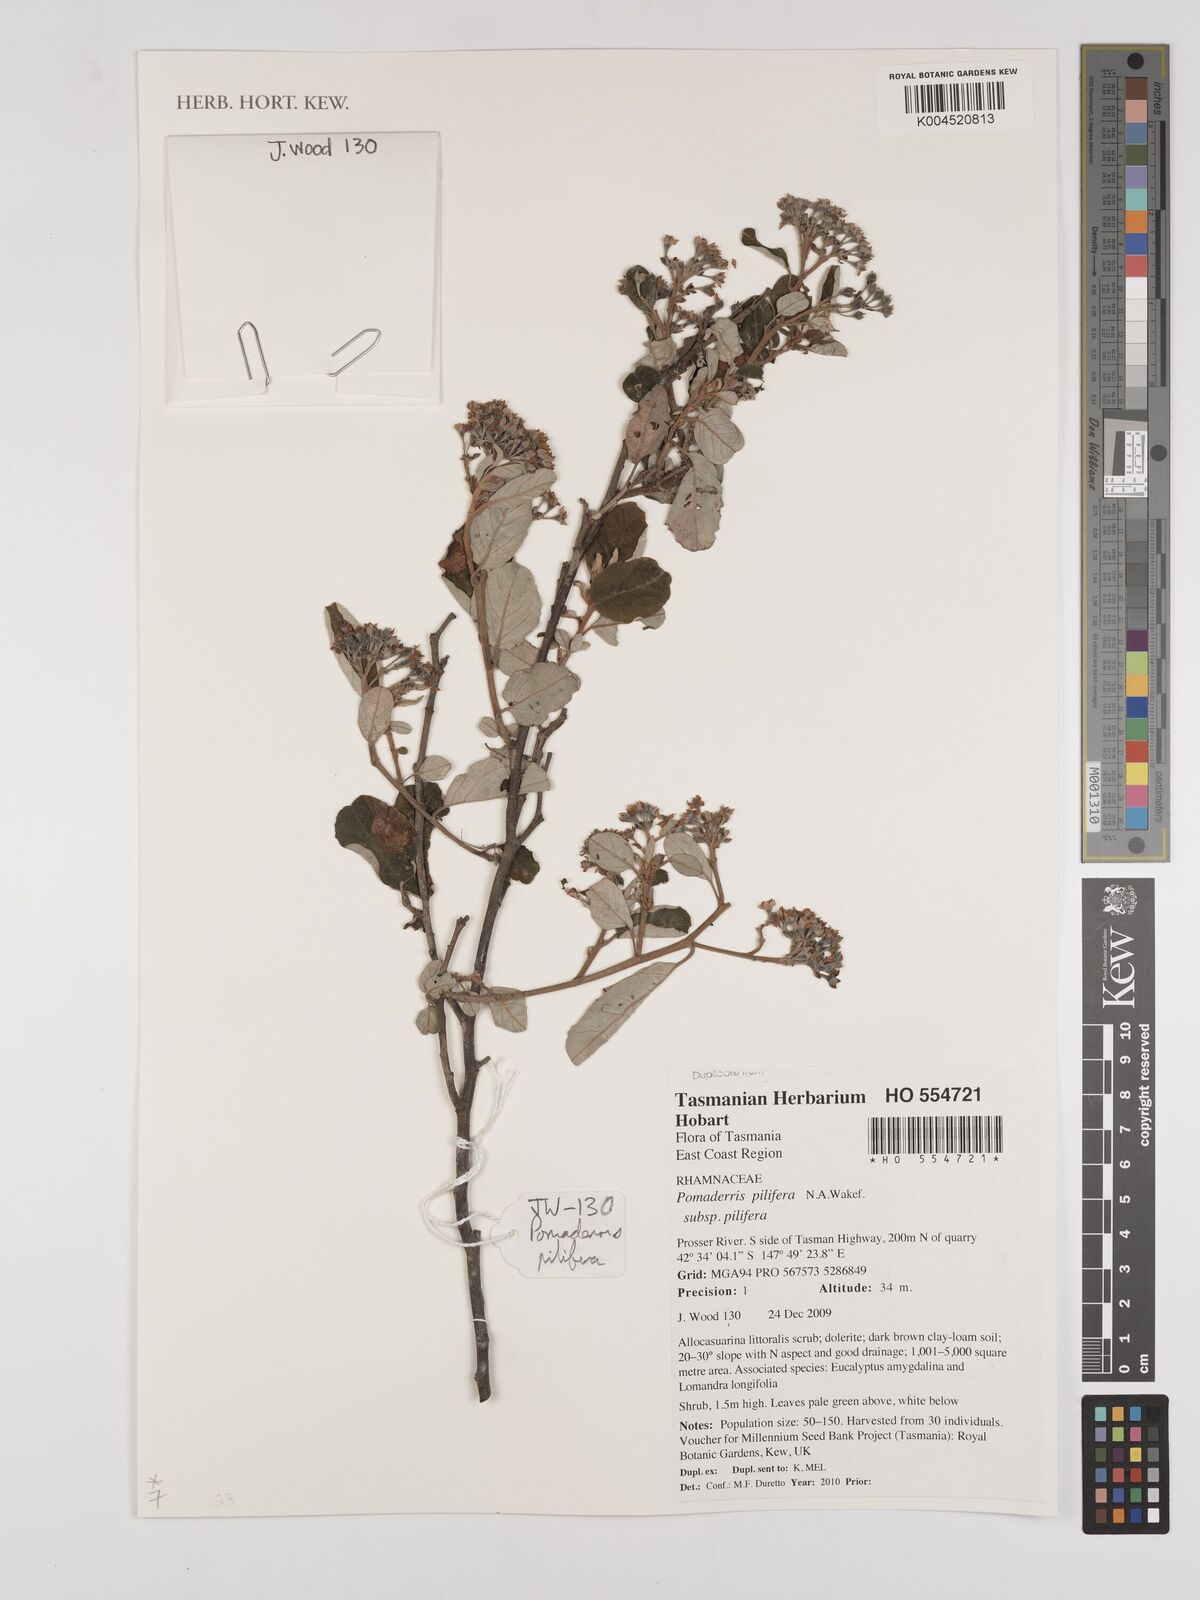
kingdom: Plantae
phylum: Tracheophyta
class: Magnoliopsida
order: Rosales
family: Rhamnaceae
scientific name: Rhamnaceae
